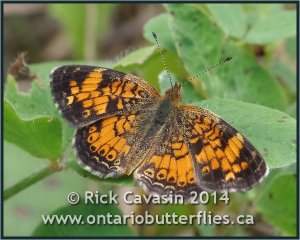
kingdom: Animalia
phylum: Arthropoda
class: Insecta
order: Lepidoptera
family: Nymphalidae
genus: Phyciodes
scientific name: Phyciodes tharos
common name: Pearl Crescent
